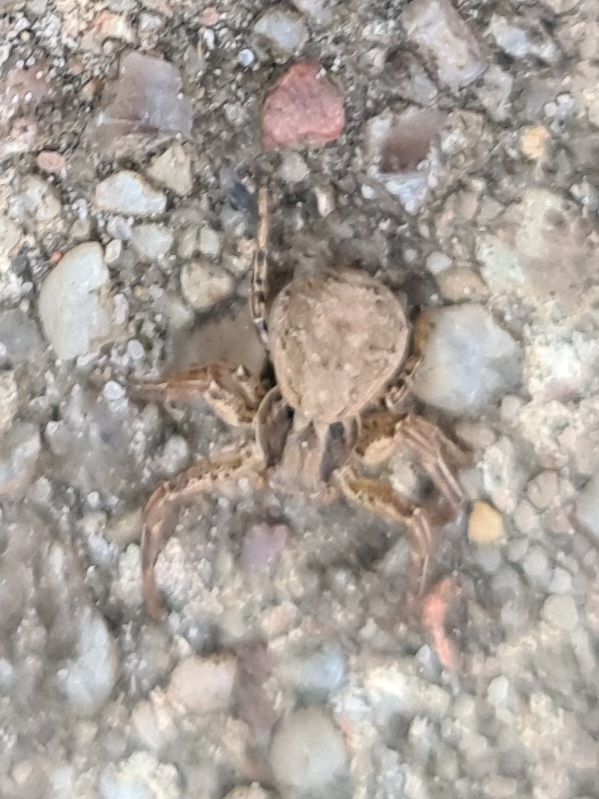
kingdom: Animalia
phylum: Arthropoda
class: Arachnida
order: Araneae
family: Thomisidae
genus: Xysticus
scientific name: Xysticus
